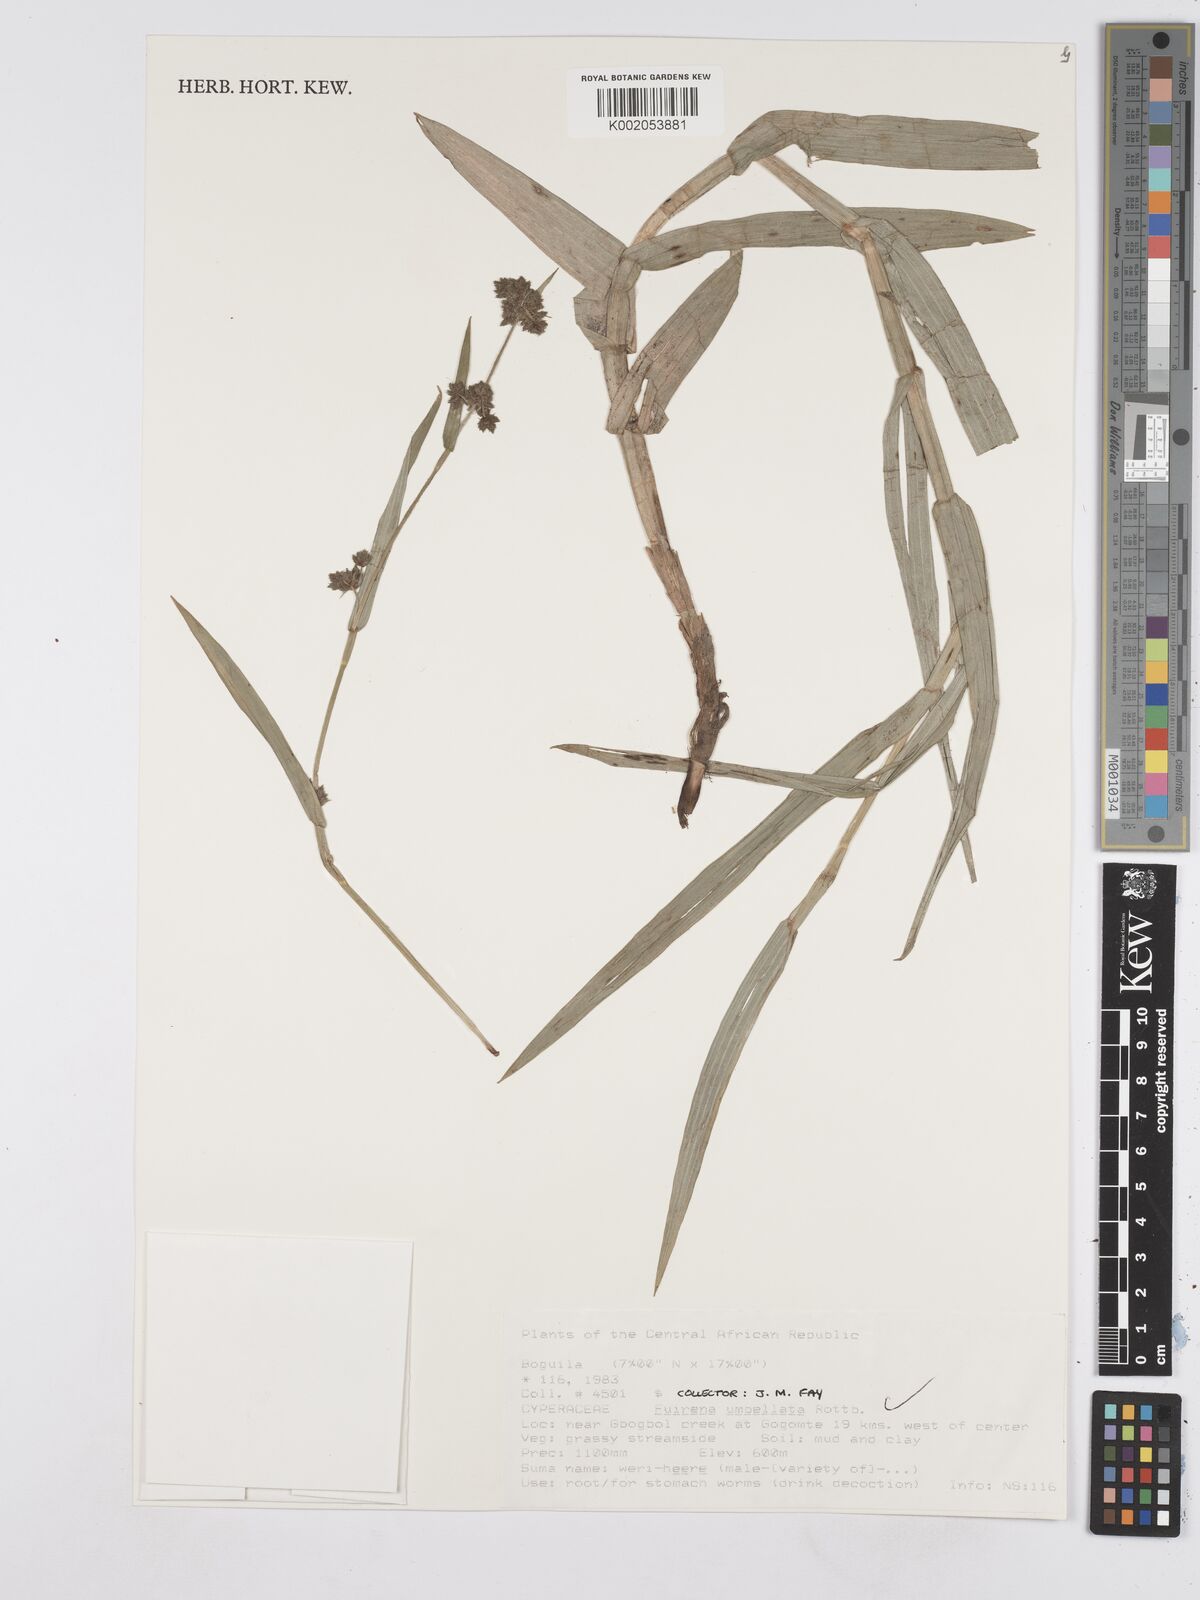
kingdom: Plantae
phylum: Tracheophyta
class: Liliopsida
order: Poales
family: Cyperaceae
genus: Fuirena
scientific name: Fuirena umbellata
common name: Yefen
